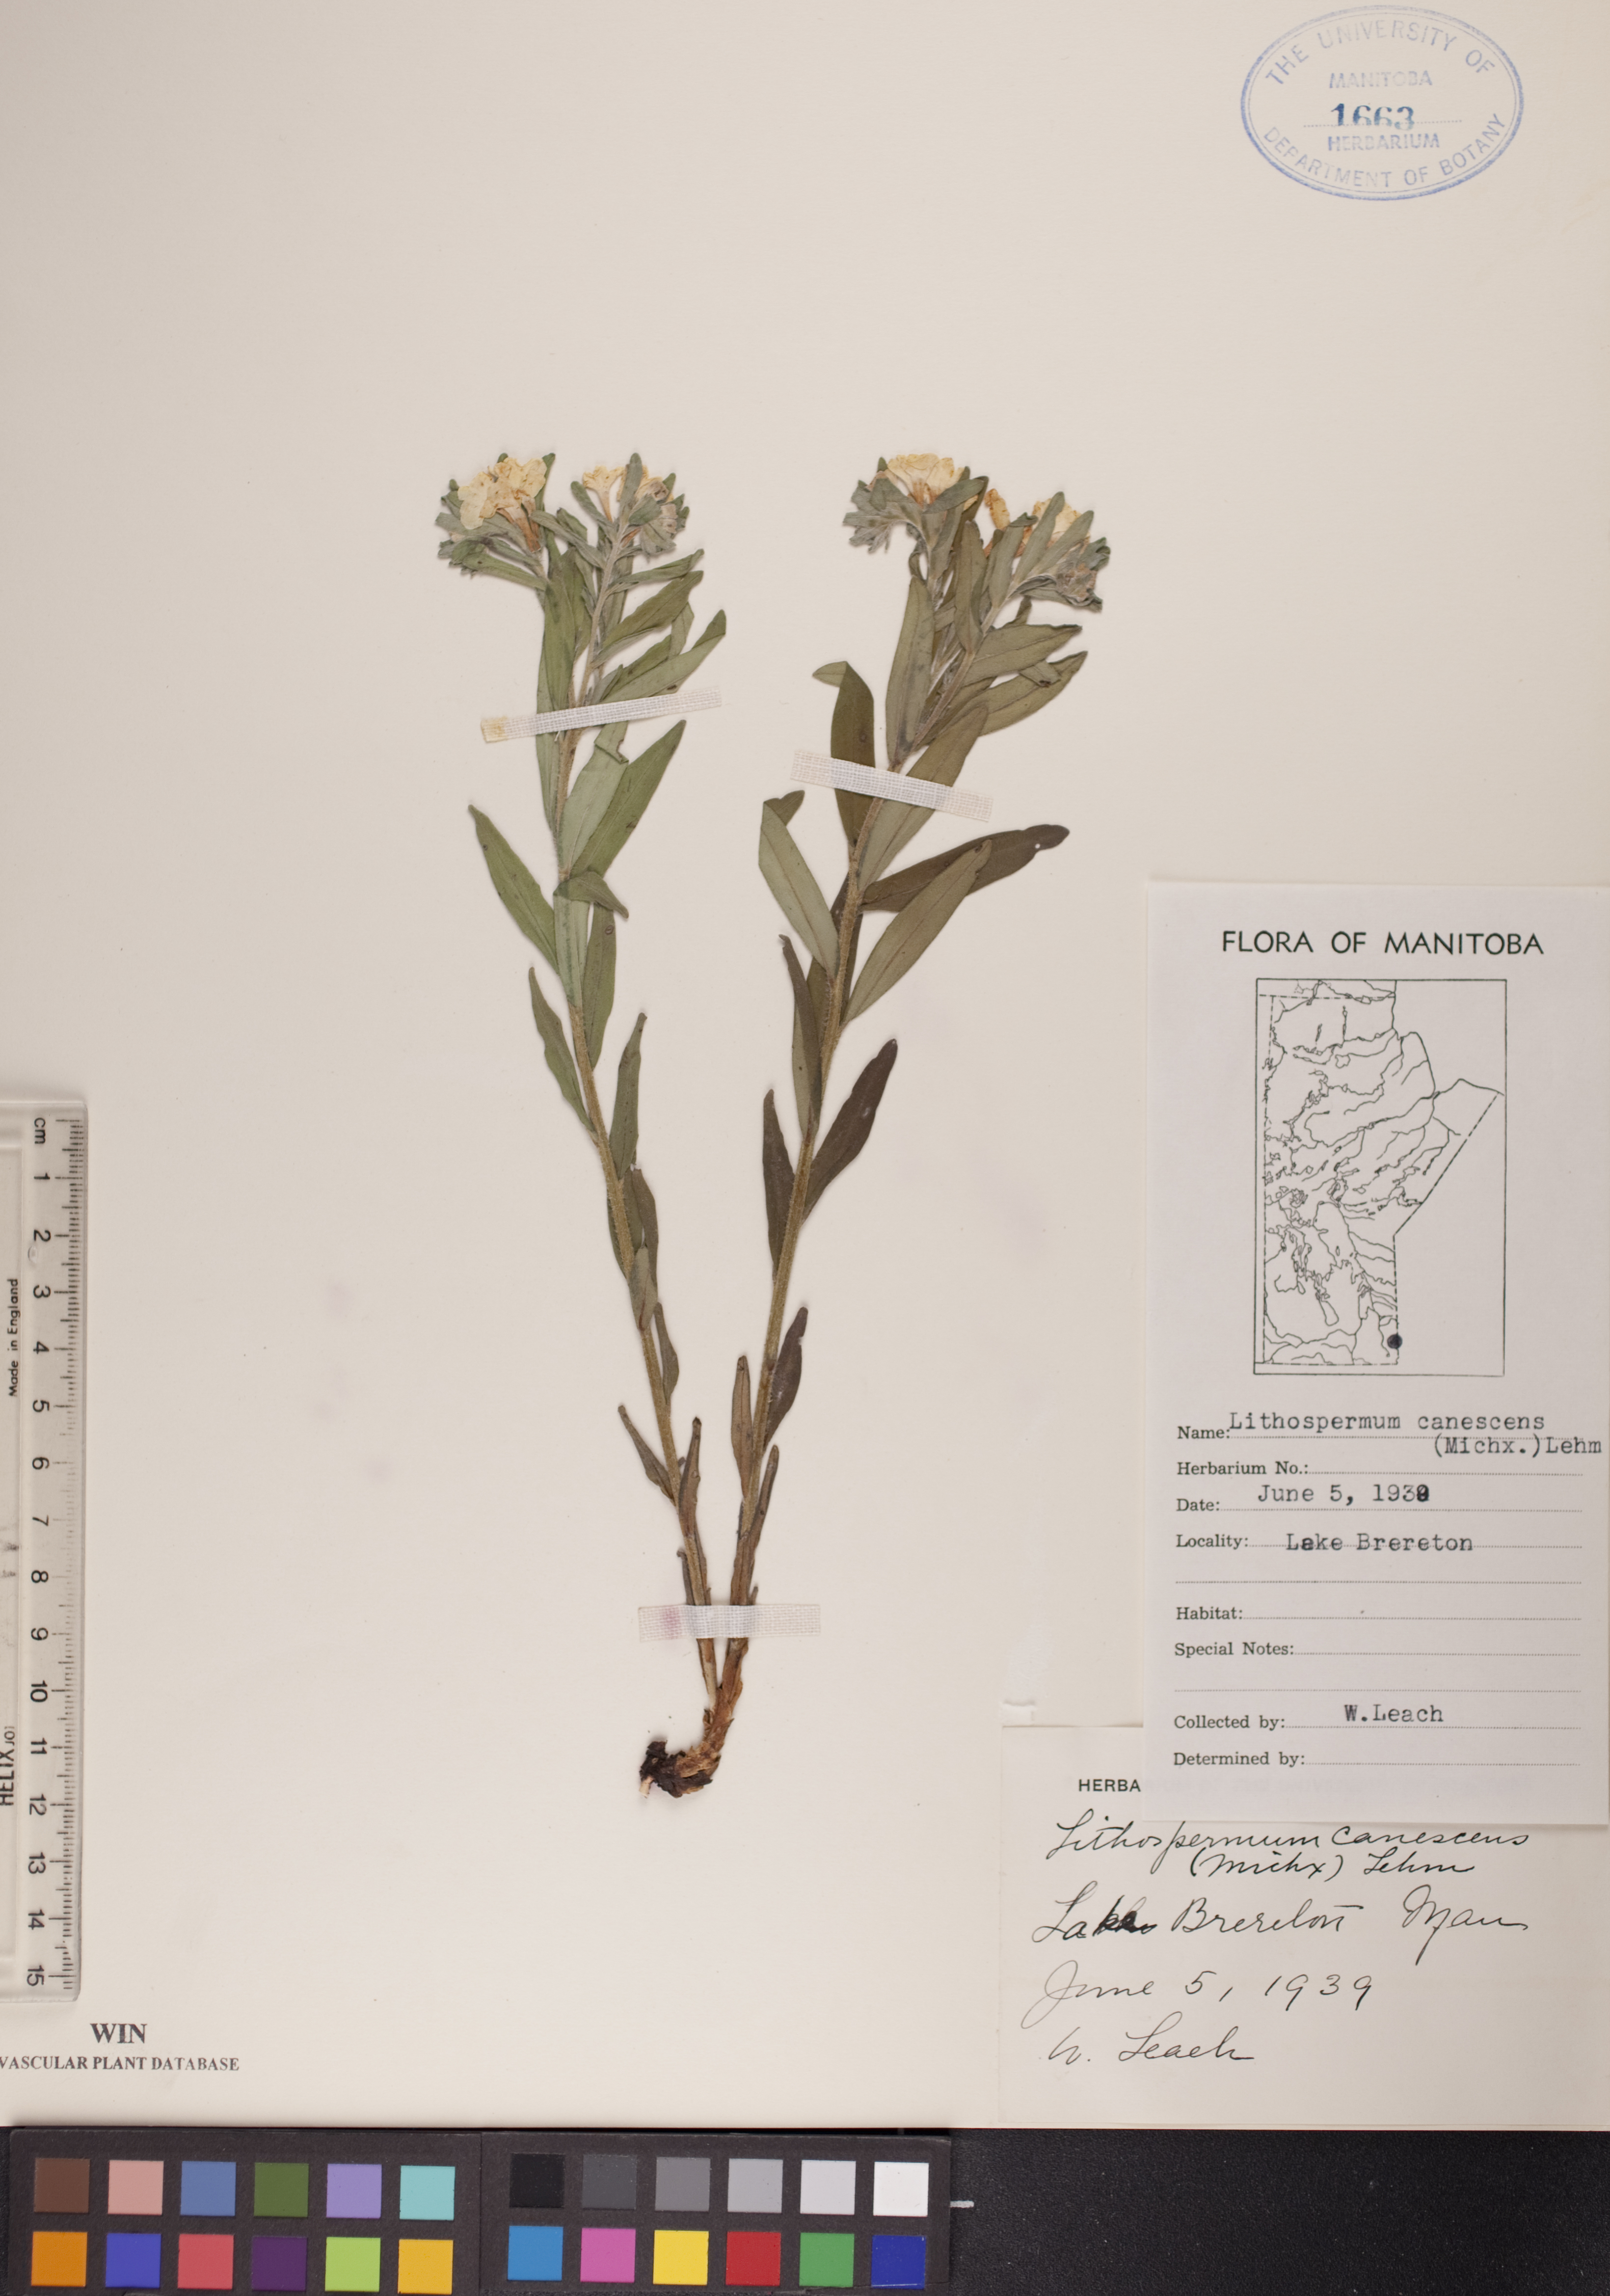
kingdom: Plantae
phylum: Tracheophyta
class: Magnoliopsida
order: Boraginales
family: Boraginaceae
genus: Lithospermum
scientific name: Lithospermum canescens
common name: Hoary puccoon
